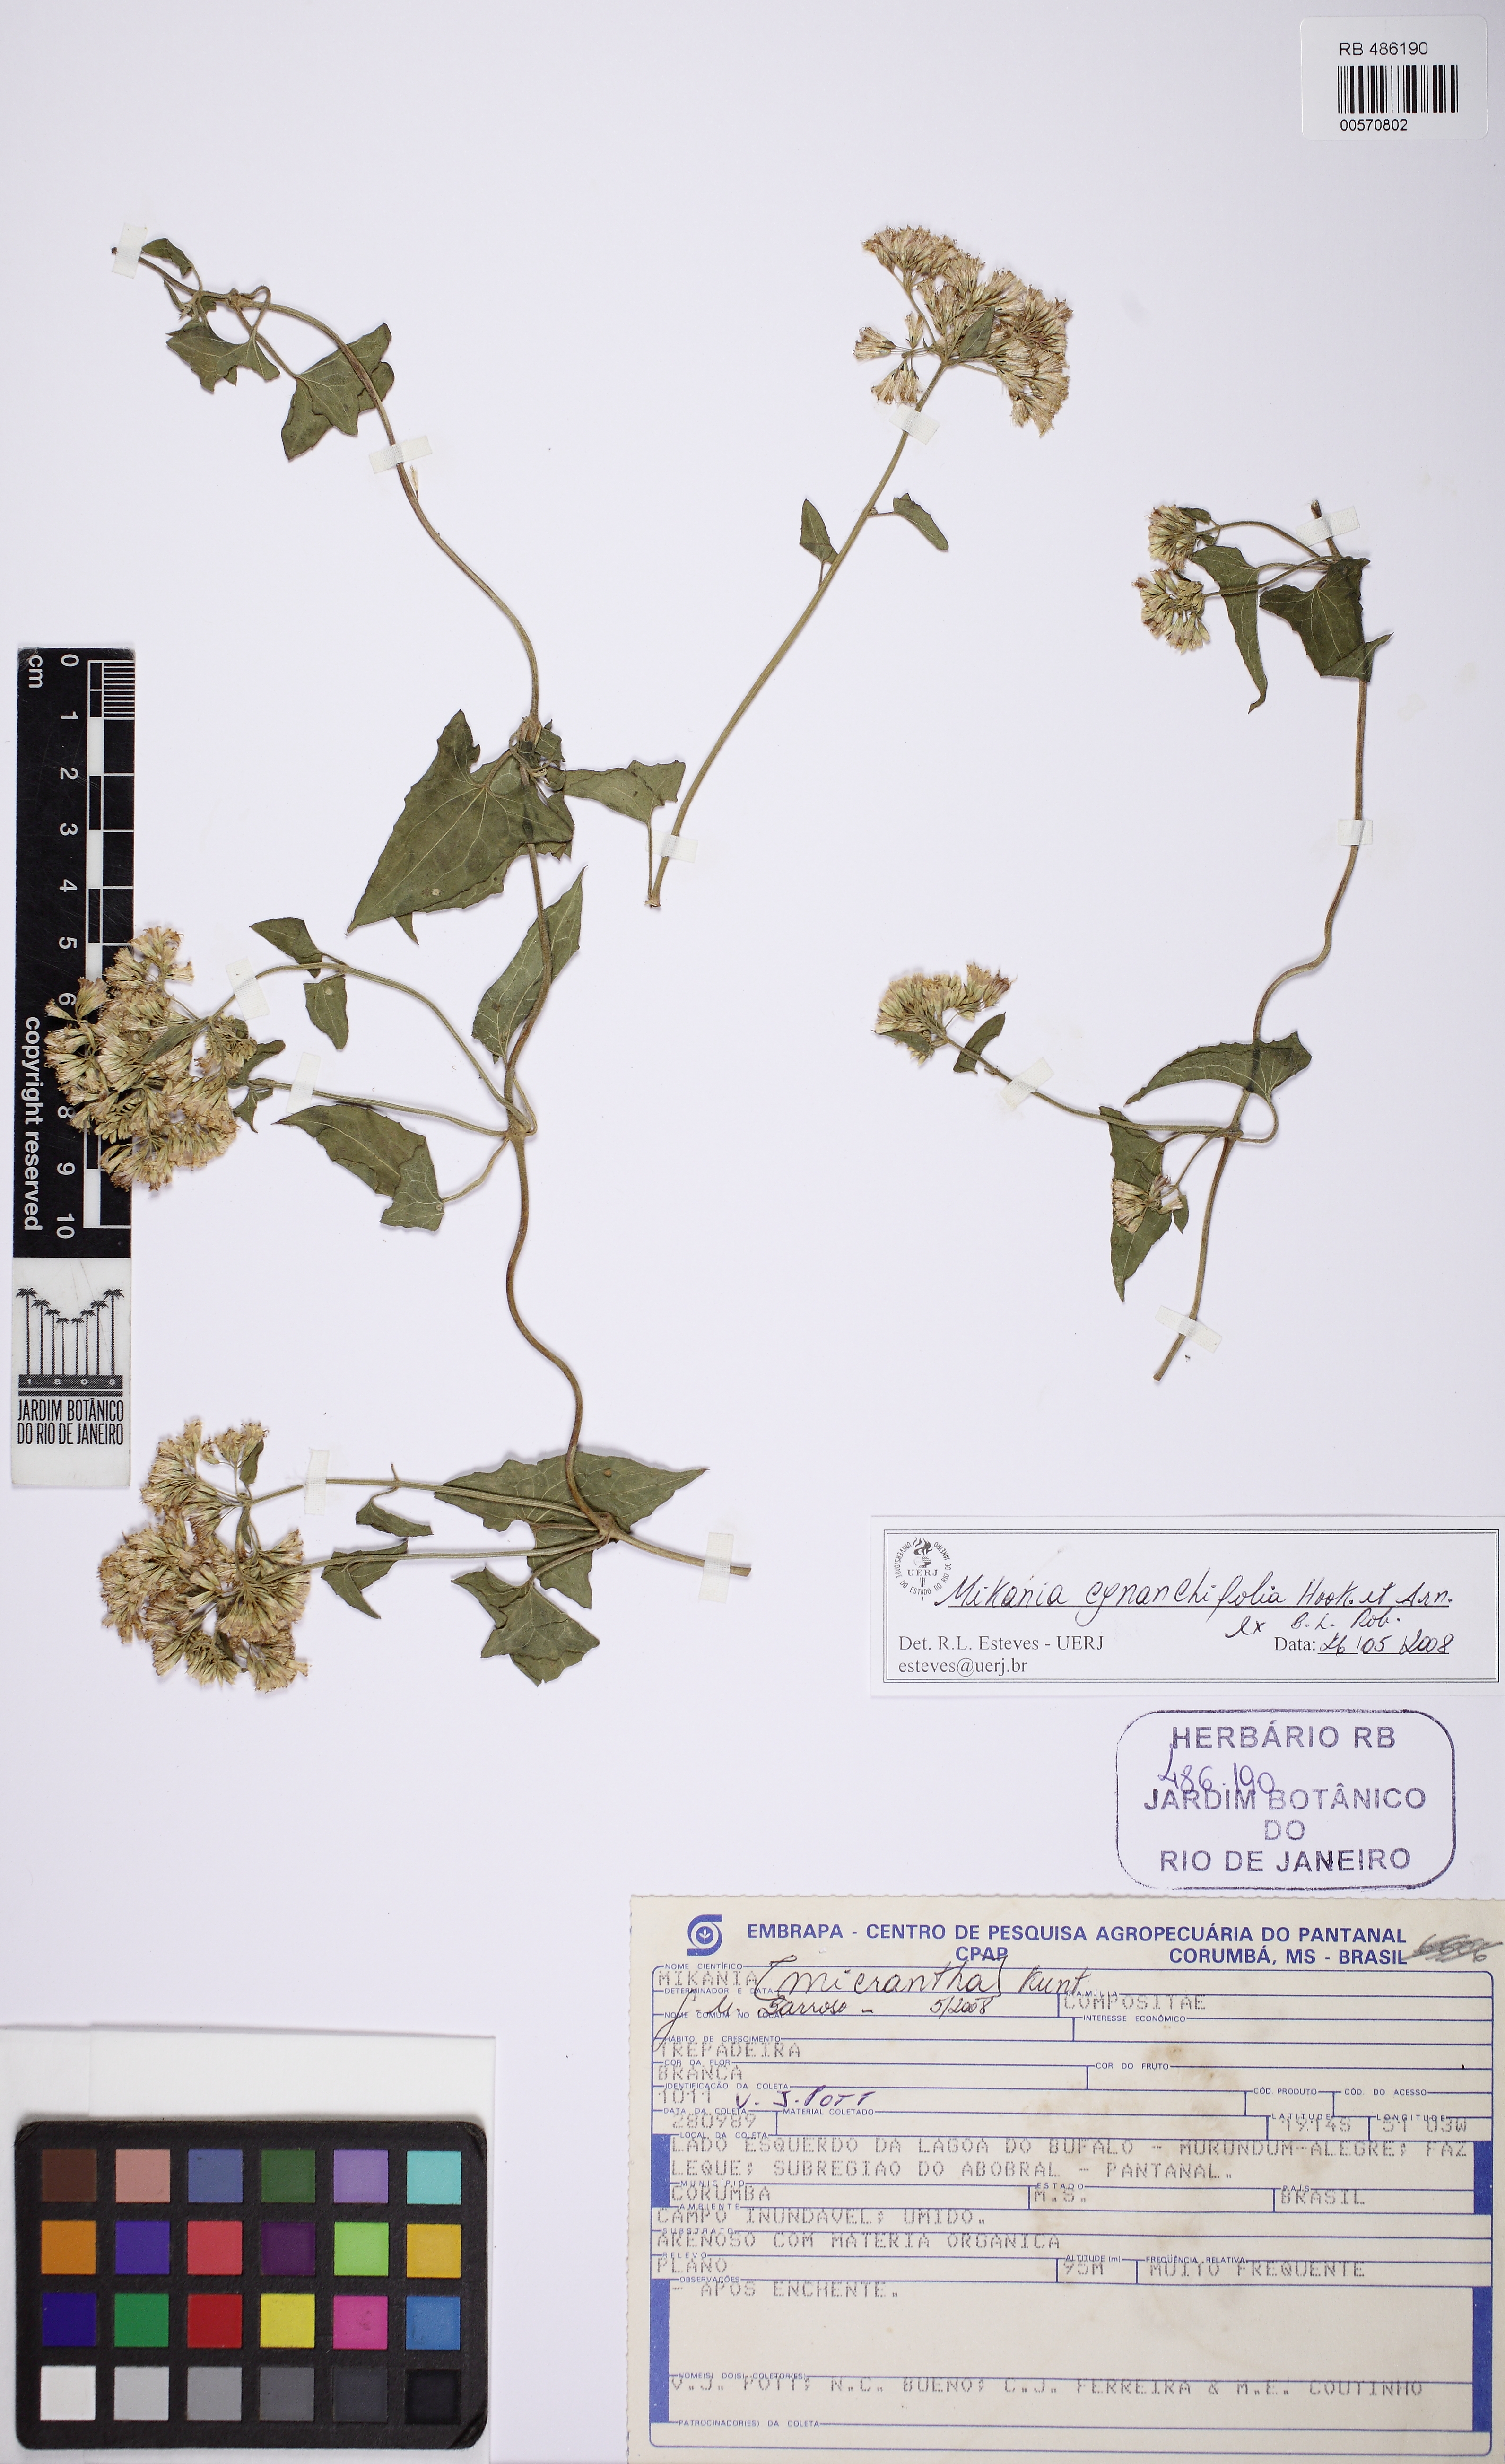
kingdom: Plantae
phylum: Tracheophyta
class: Magnoliopsida
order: Asterales
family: Asteraceae
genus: Mikania
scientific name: Mikania cynanchifolia
